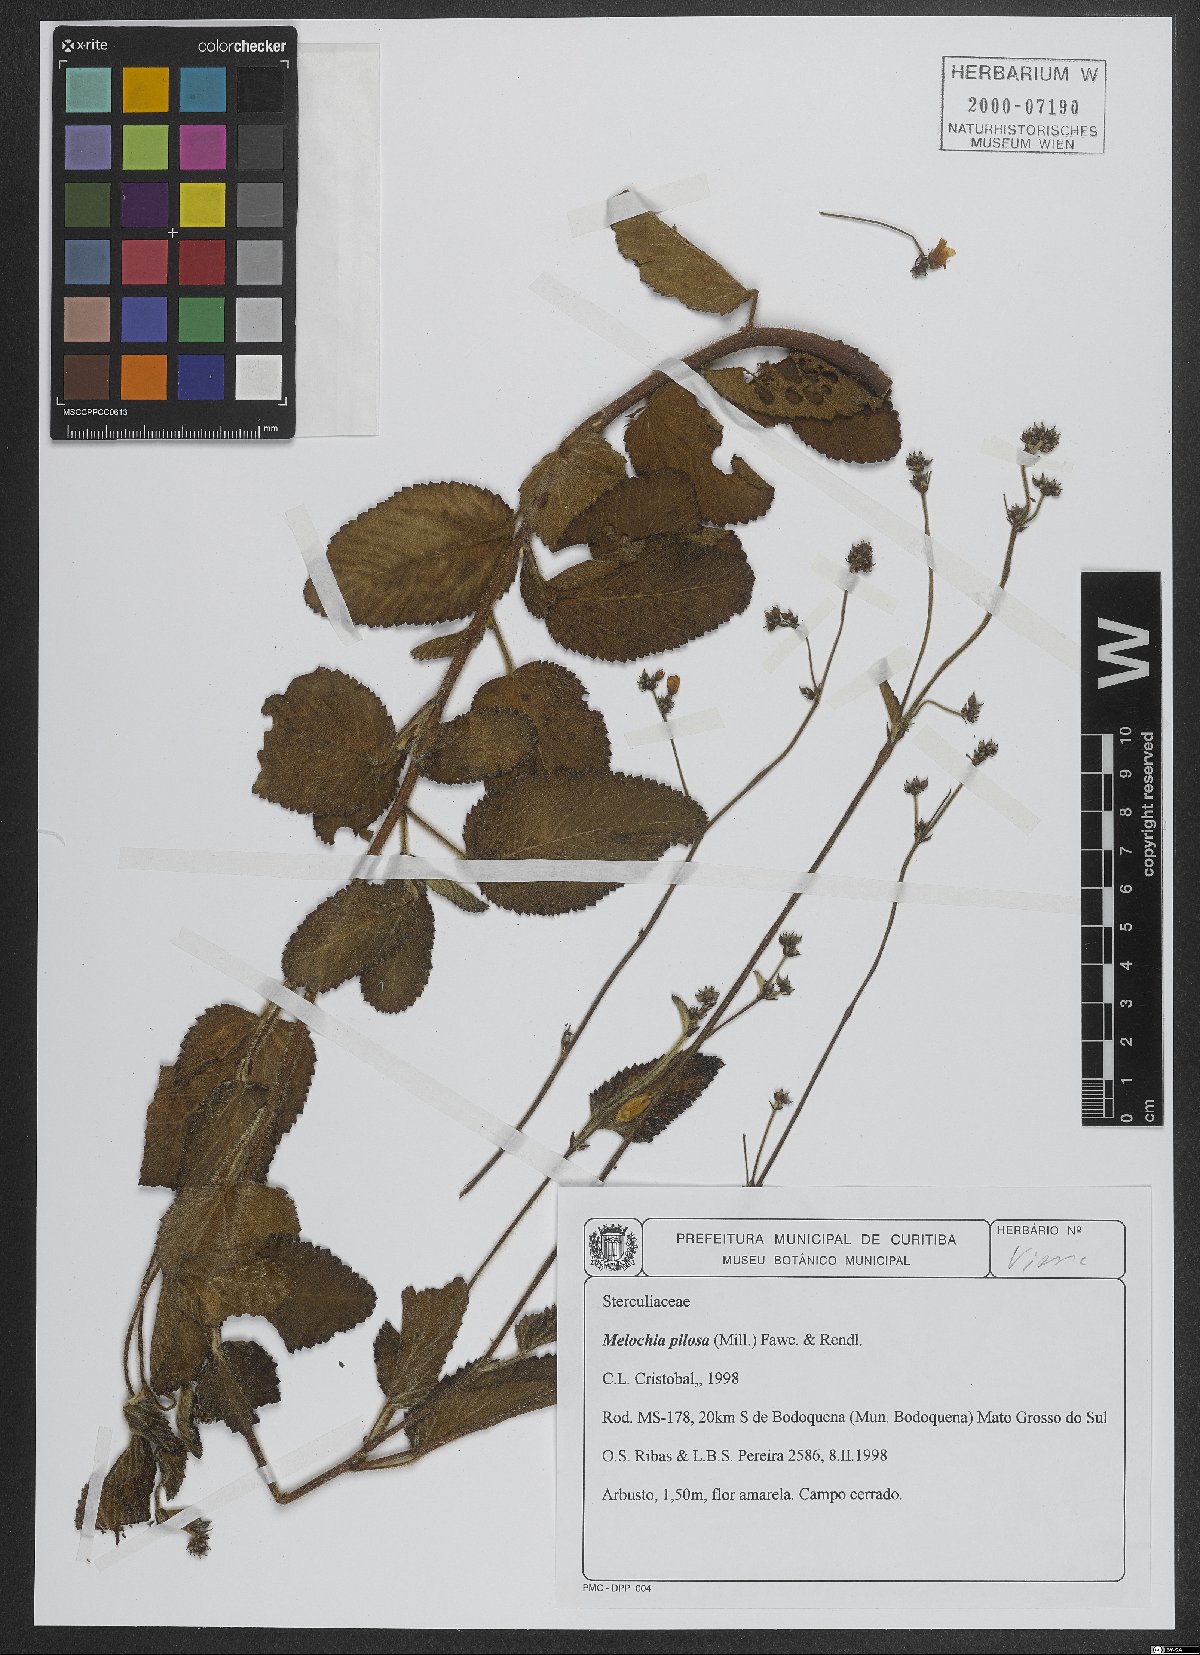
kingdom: Plantae
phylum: Tracheophyta
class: Magnoliopsida
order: Malvales
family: Malvaceae
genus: Melochia
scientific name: Melochia pilosa
